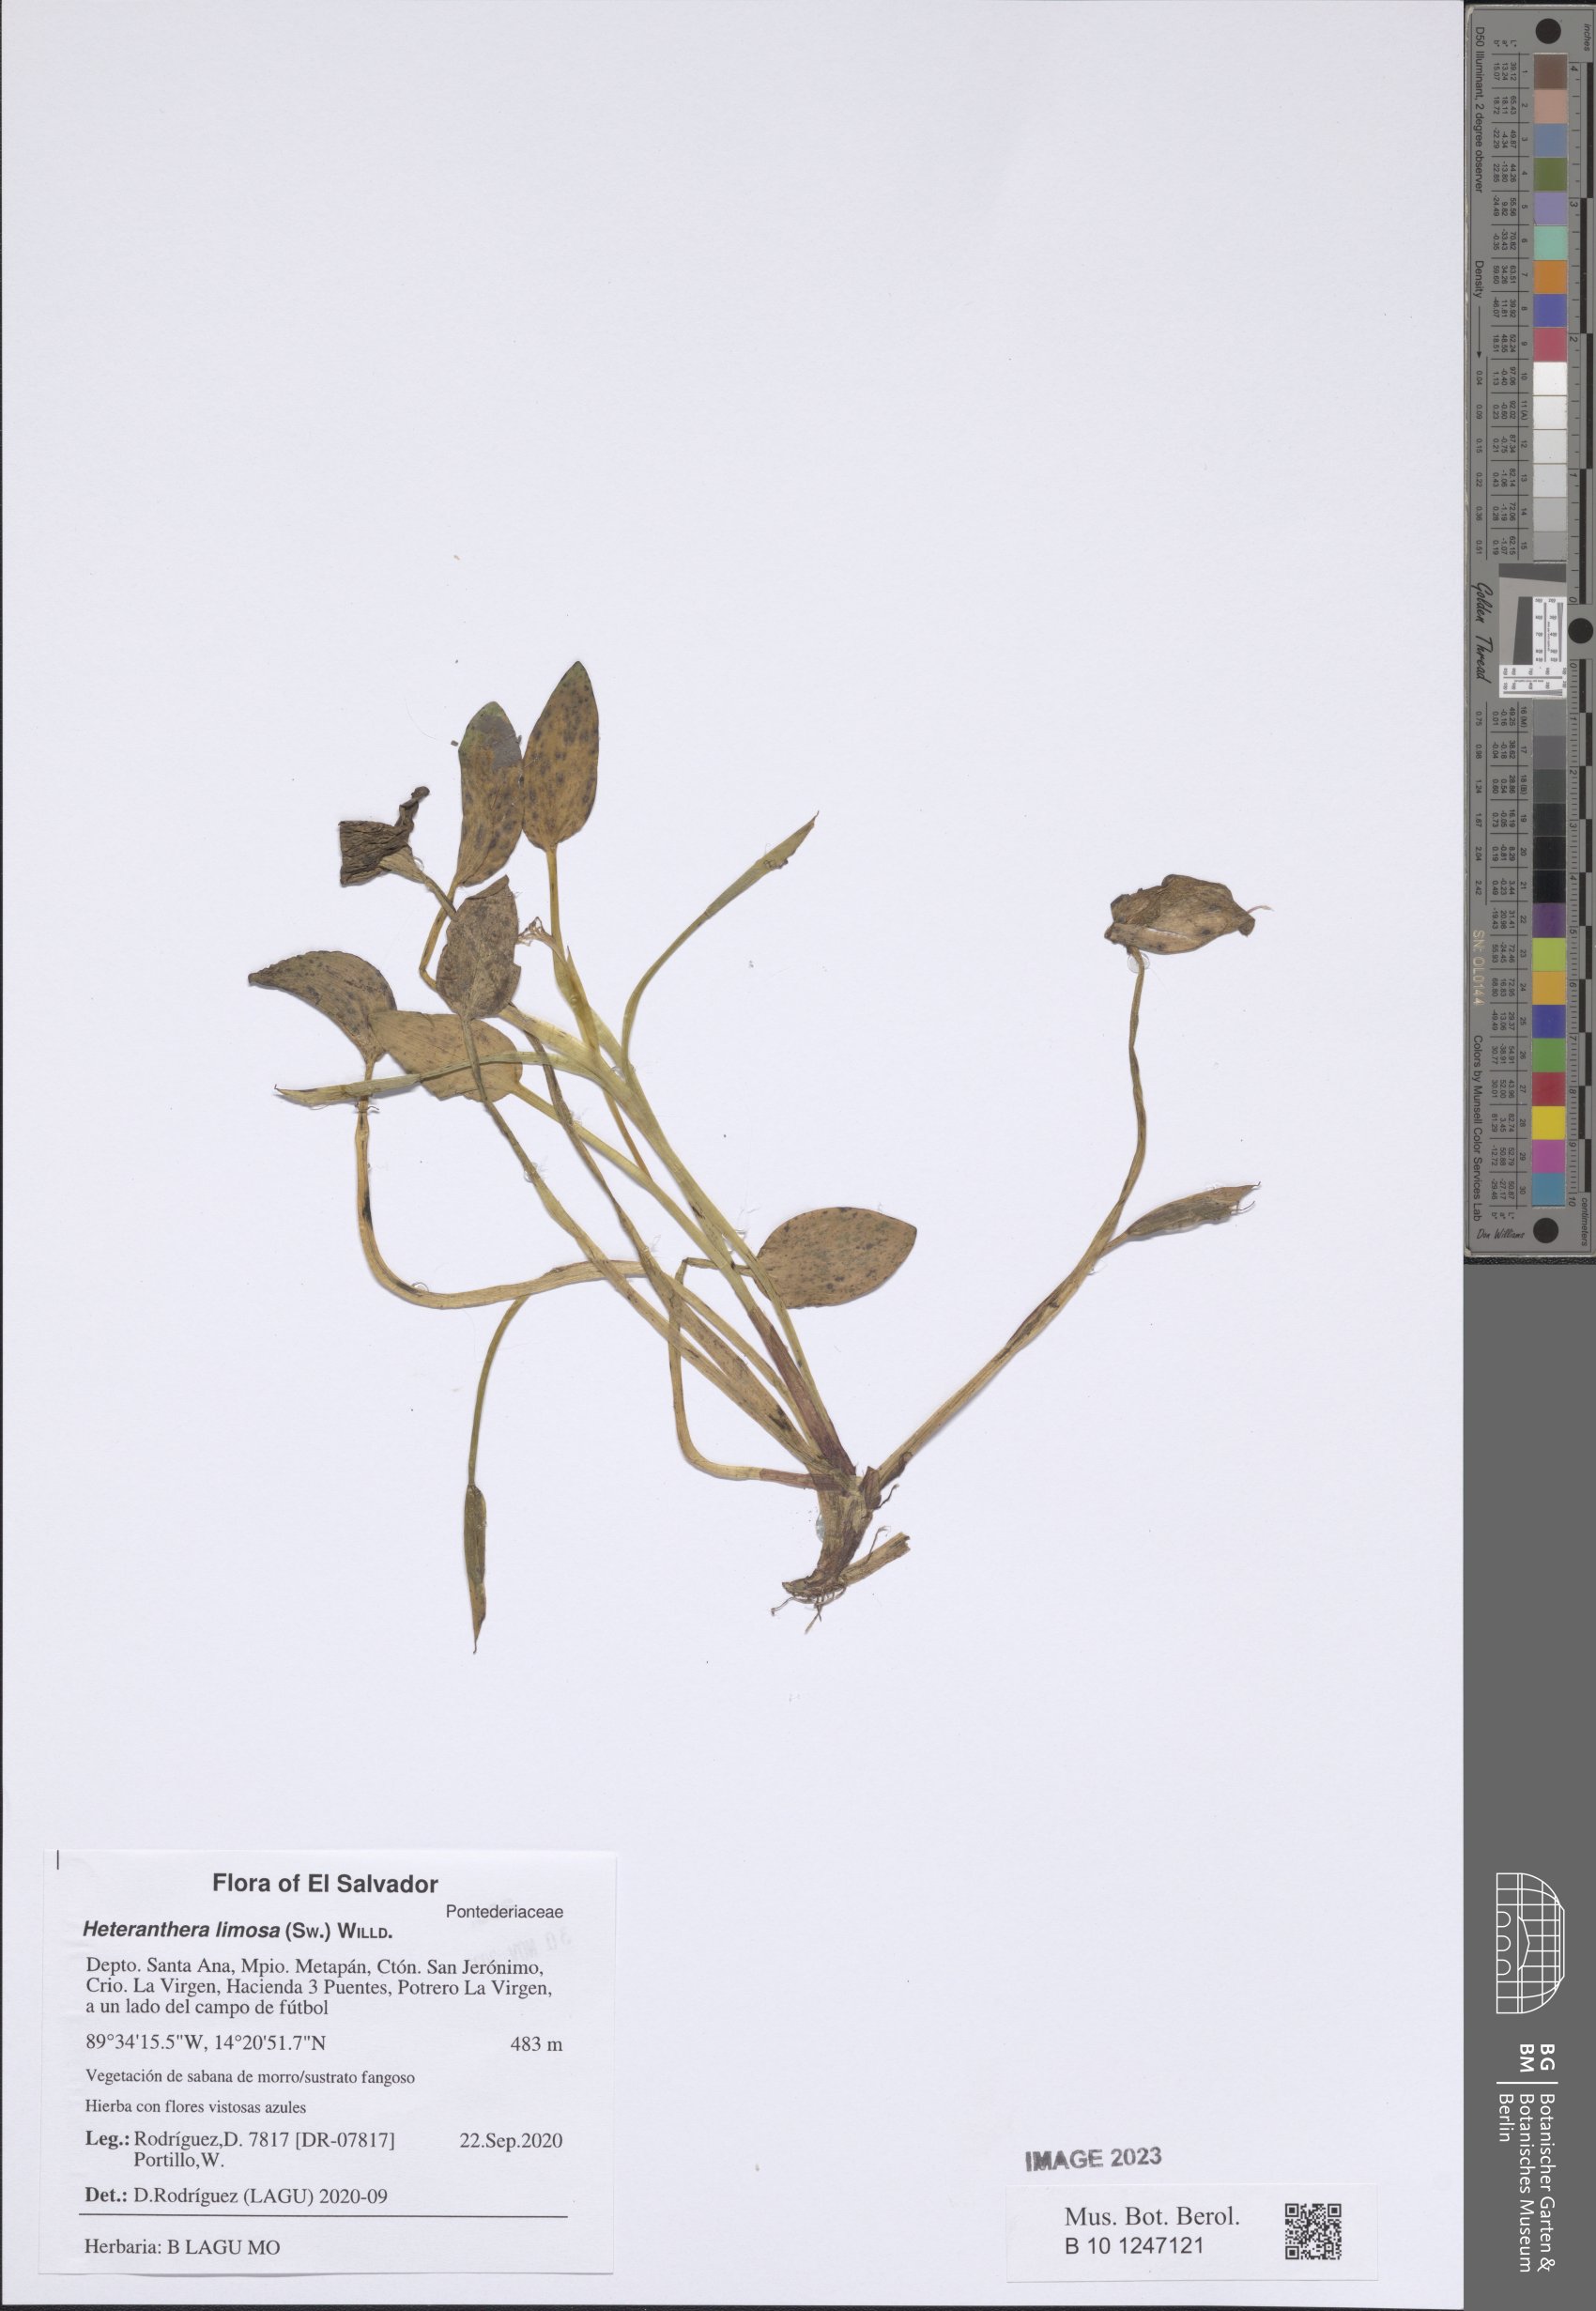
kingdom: Plantae
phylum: Tracheophyta
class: Liliopsida
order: Commelinales
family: Pontederiaceae
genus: Heteranthera
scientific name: Heteranthera limosa
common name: Blue mud-plantain
